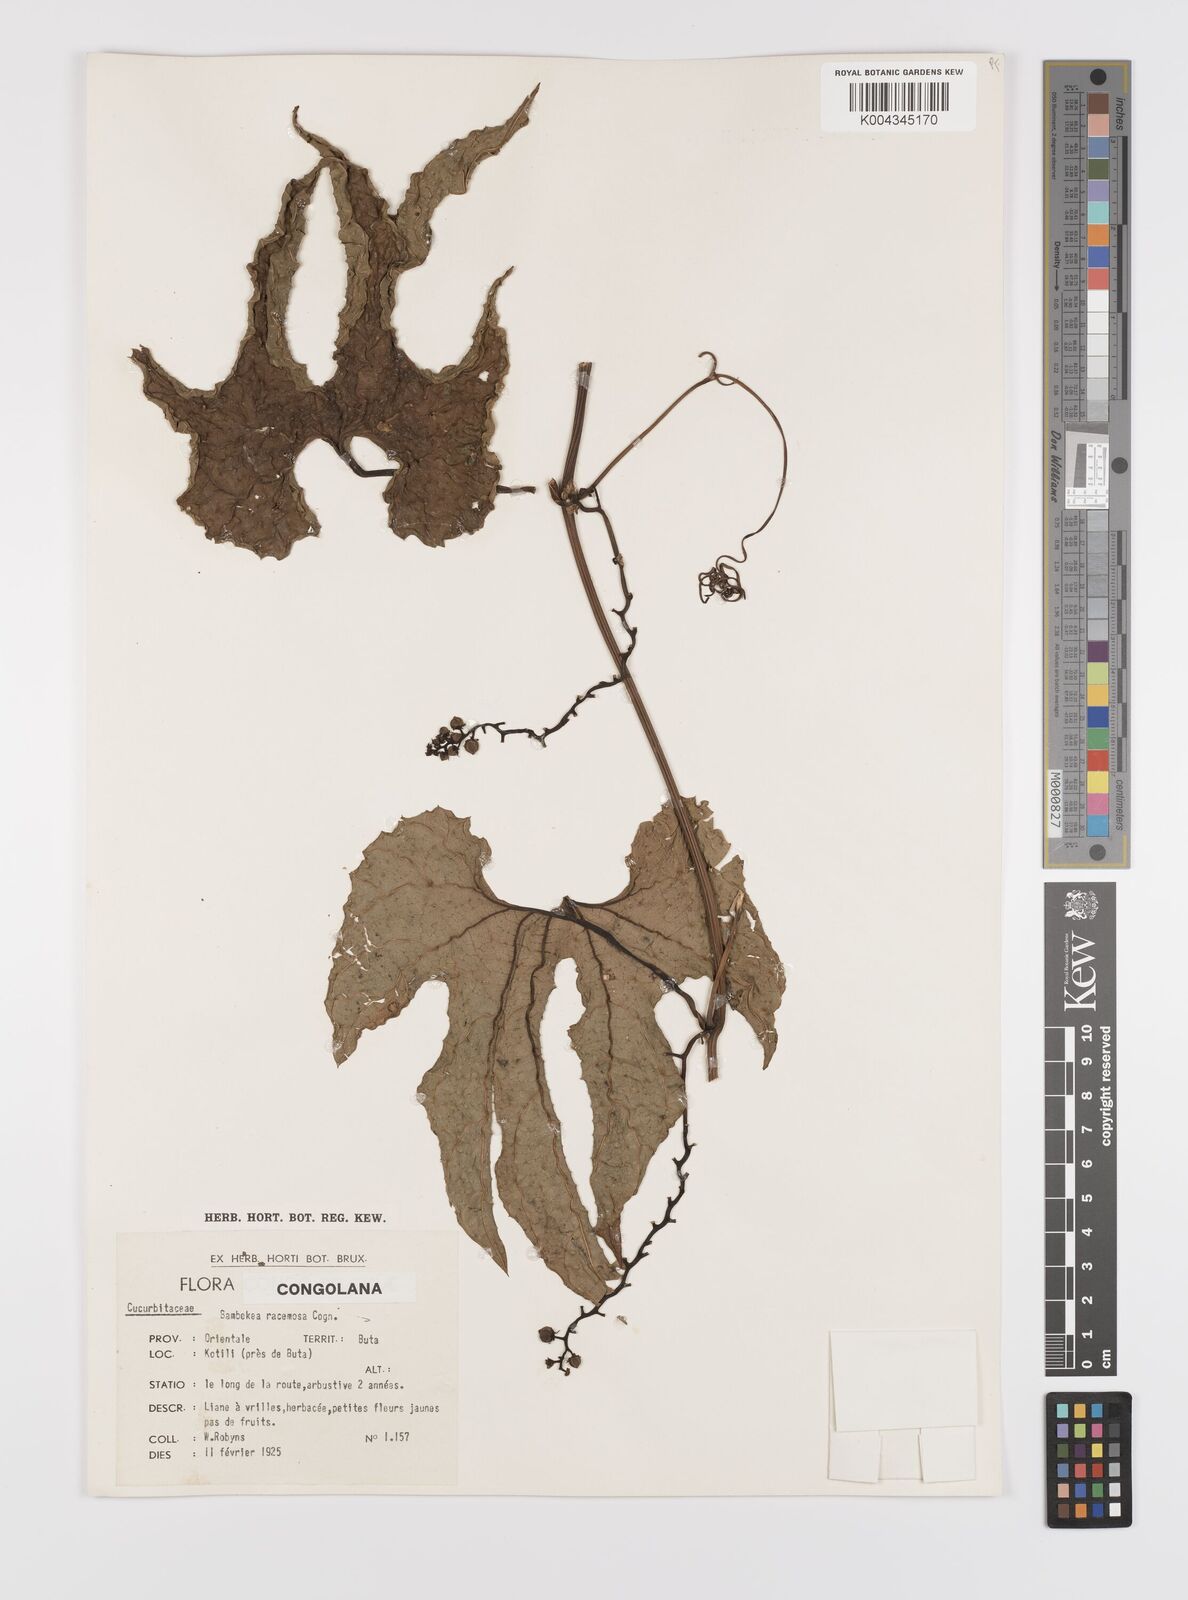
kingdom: Plantae
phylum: Tracheophyta
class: Magnoliopsida
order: Cucurbitales
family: Cucurbitaceae
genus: Bambekea
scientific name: Bambekea racemosa
